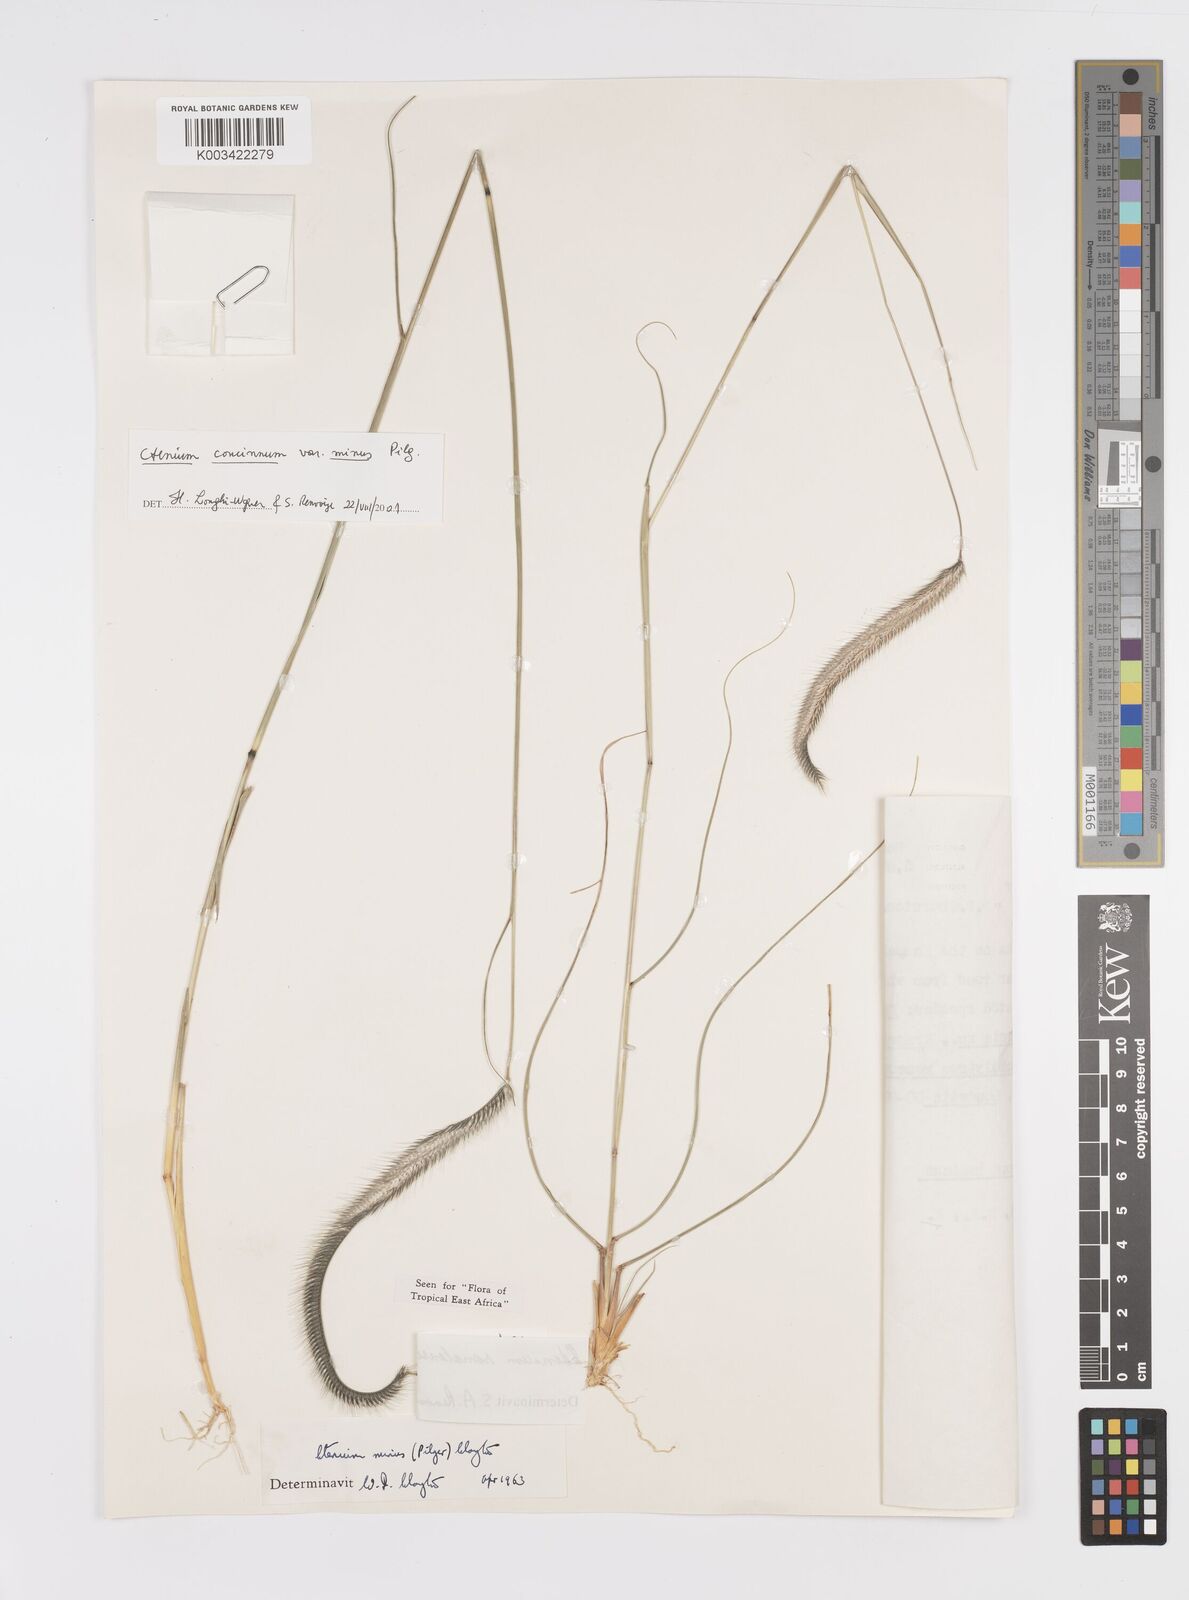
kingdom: Plantae
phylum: Tracheophyta
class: Liliopsida
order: Poales
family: Poaceae
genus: Ctenium
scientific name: Ctenium concinnum
